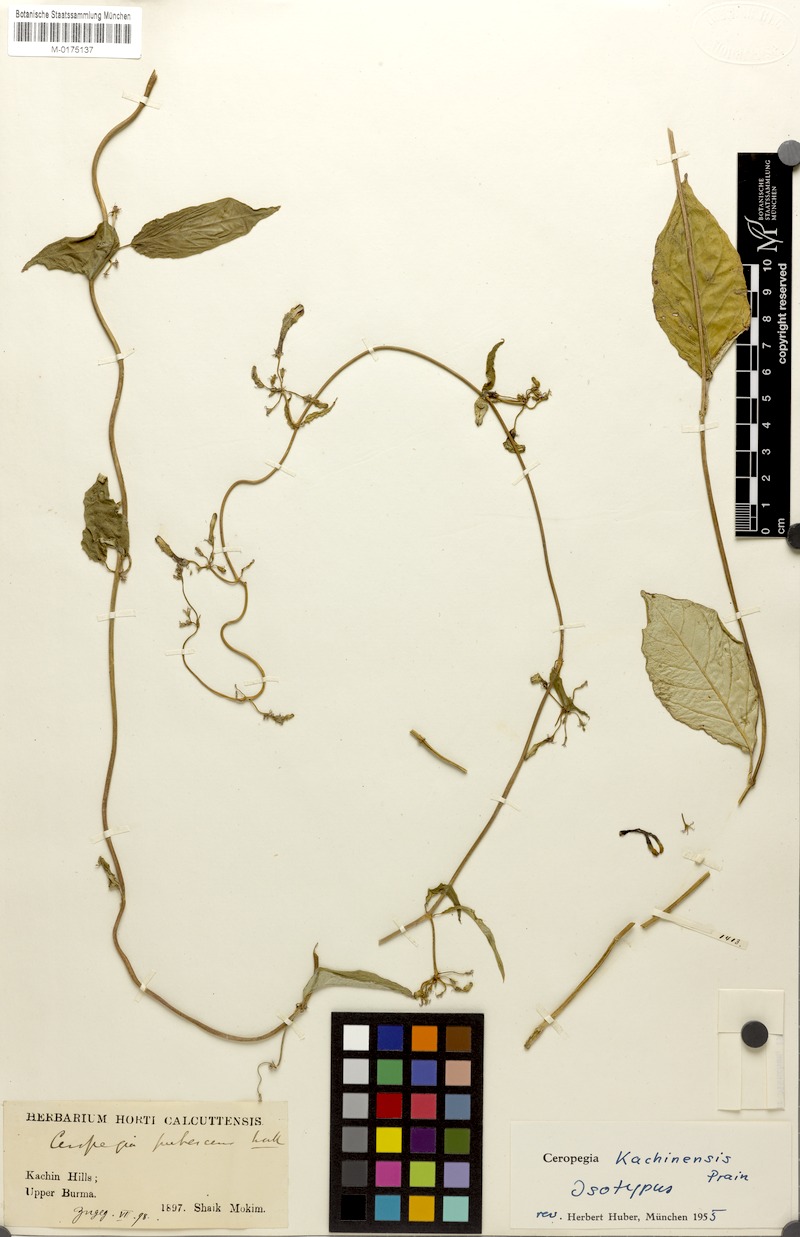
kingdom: Plantae
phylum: Tracheophyta
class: Magnoliopsida
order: Gentianales
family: Apocynaceae
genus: Ceropegia
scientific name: Ceropegia kachinensis
